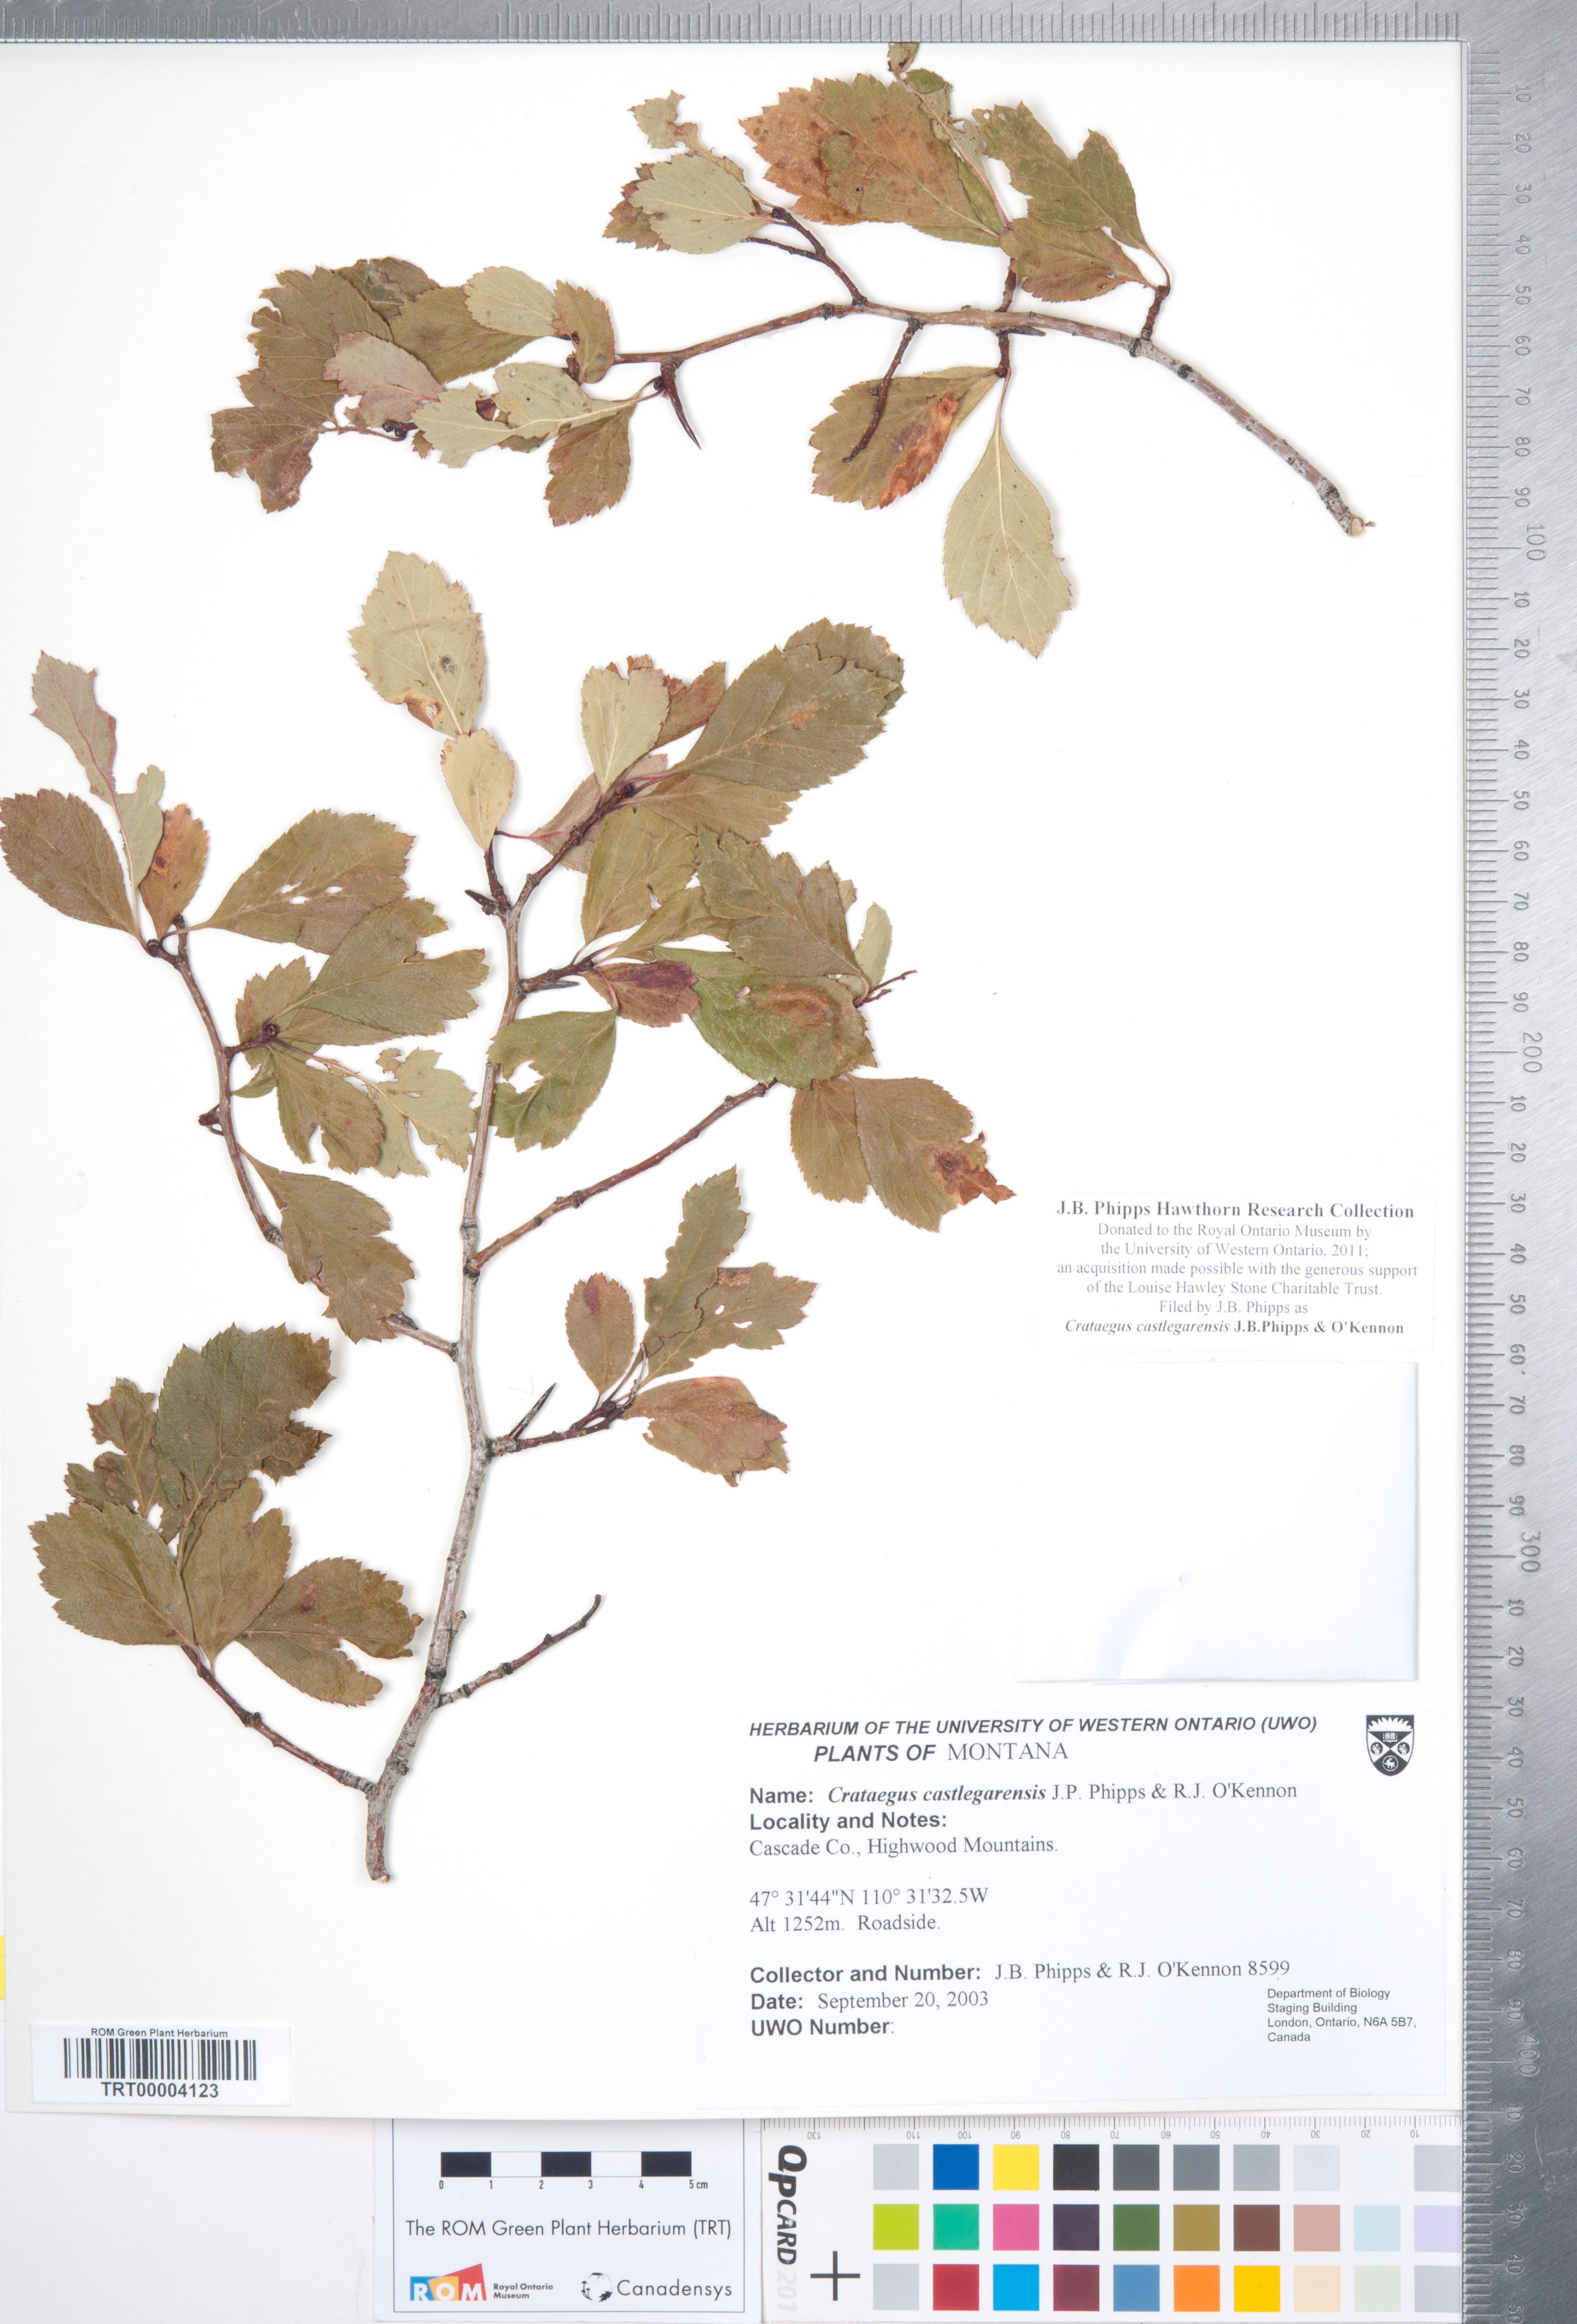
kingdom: Plantae
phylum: Tracheophyta
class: Magnoliopsida
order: Rosales
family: Rosaceae
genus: Crataegus
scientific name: Crataegus castlegarensis
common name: Castlegar hawthorn
